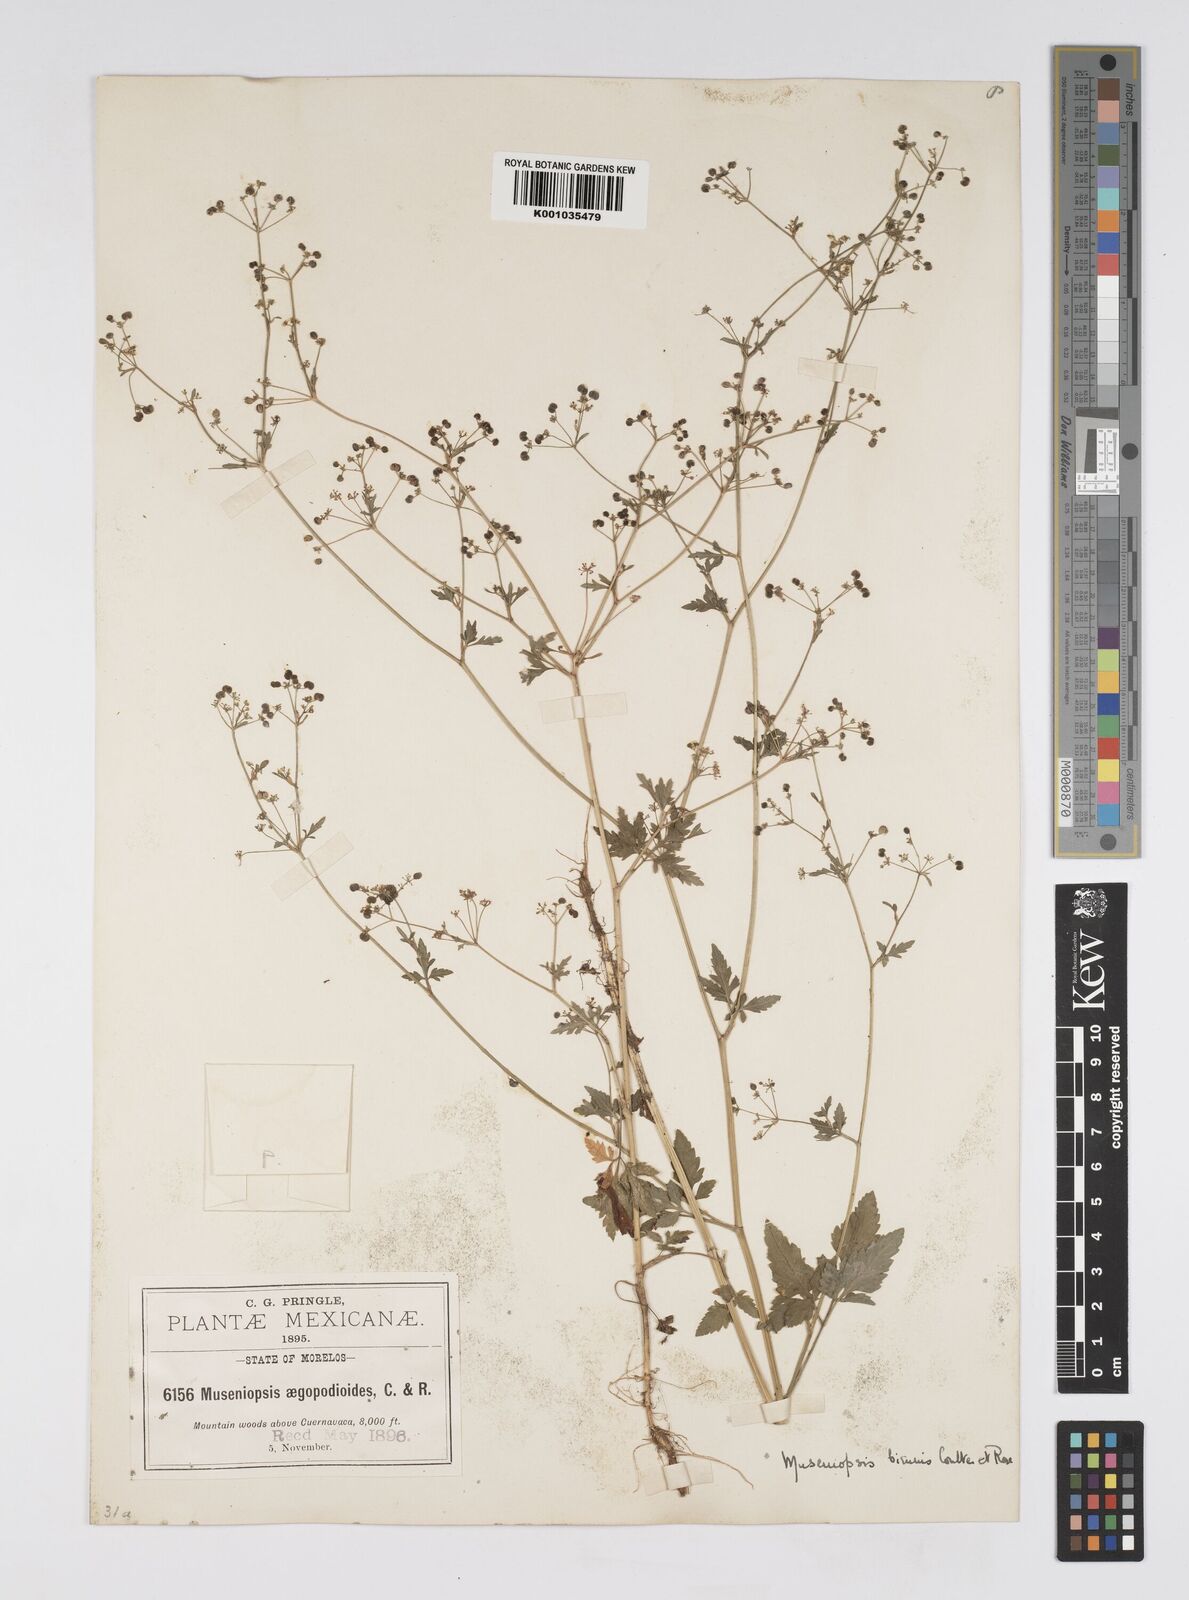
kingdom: Plantae
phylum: Tracheophyta
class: Magnoliopsida
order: Apiales
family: Apiaceae
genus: Donnellsmithia
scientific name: Donnellsmithia biennis
